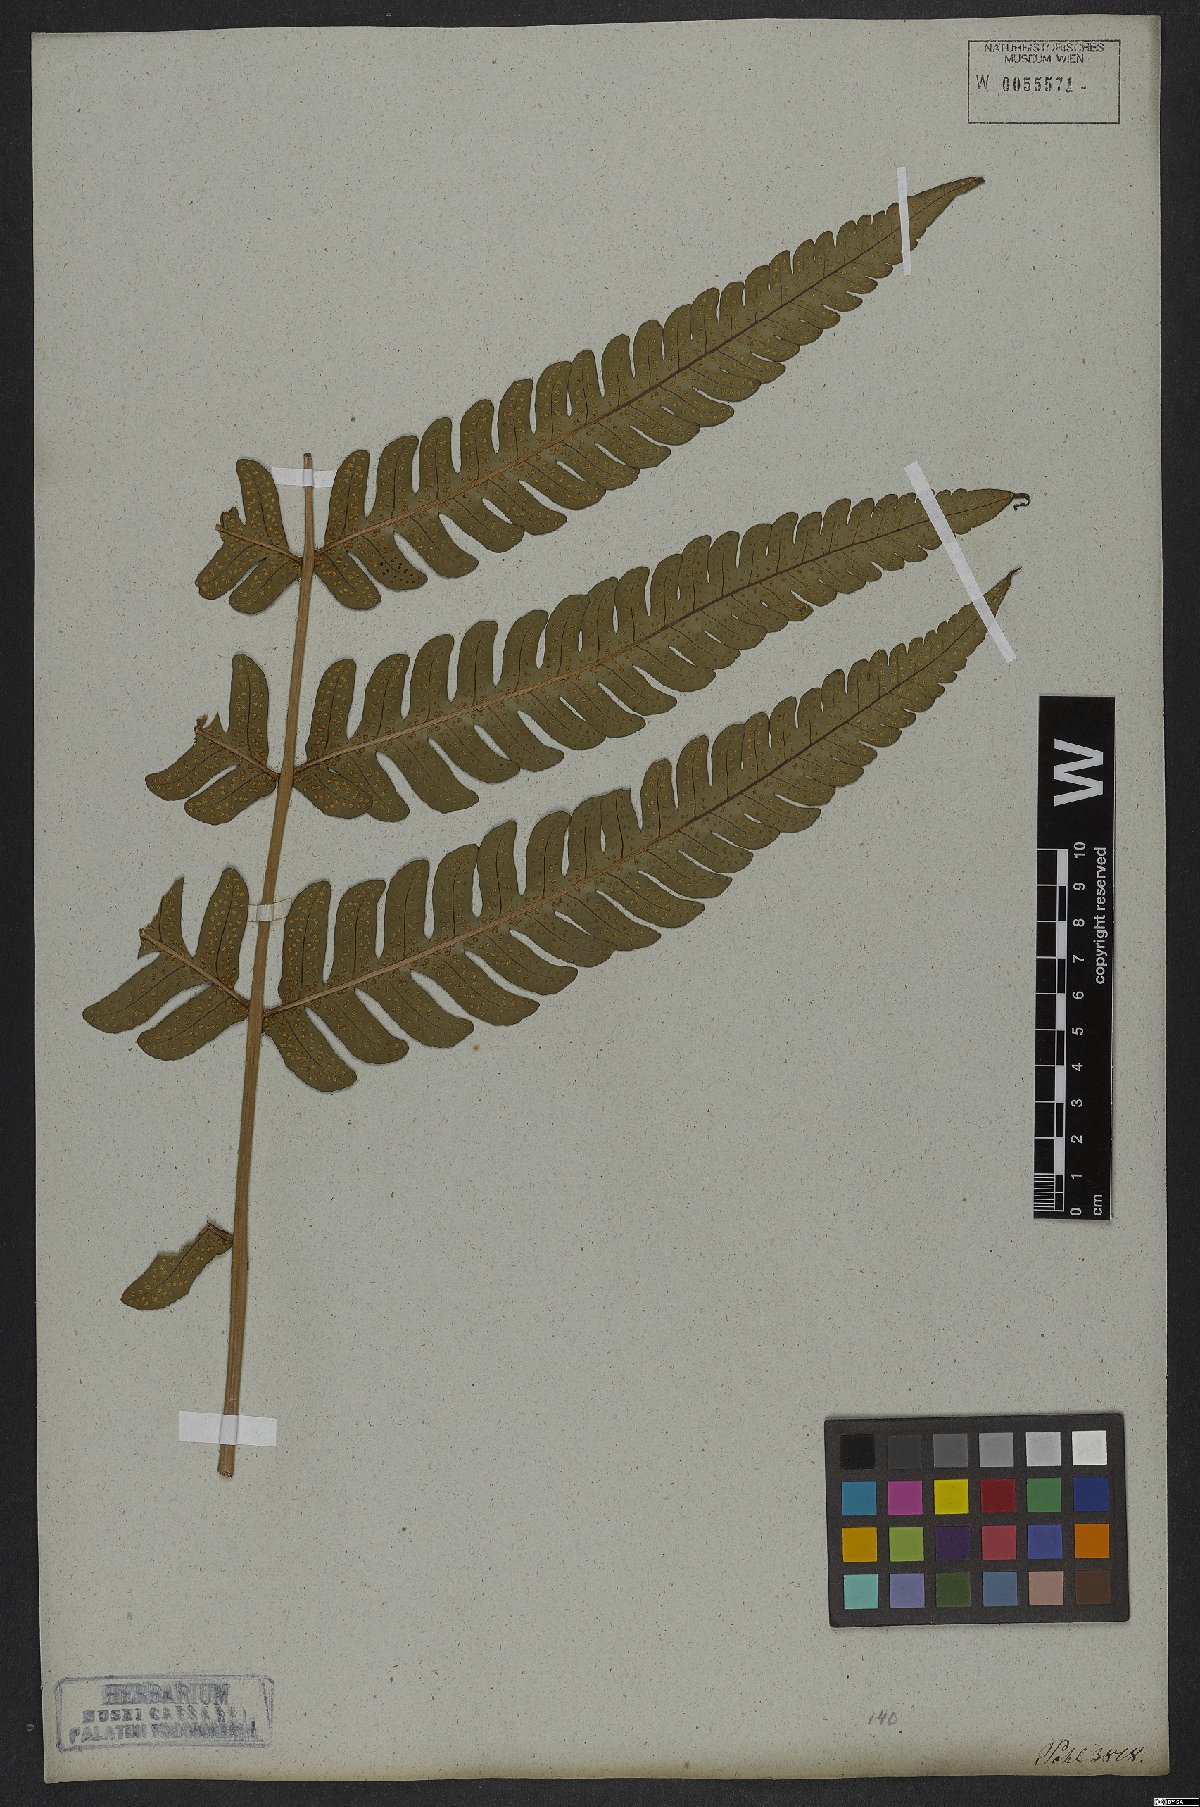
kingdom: Plantae
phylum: Tracheophyta
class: Polypodiopsida
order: Polypodiales
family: Dryopteridaceae
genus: Megalastrum
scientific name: Megalastrum grande
